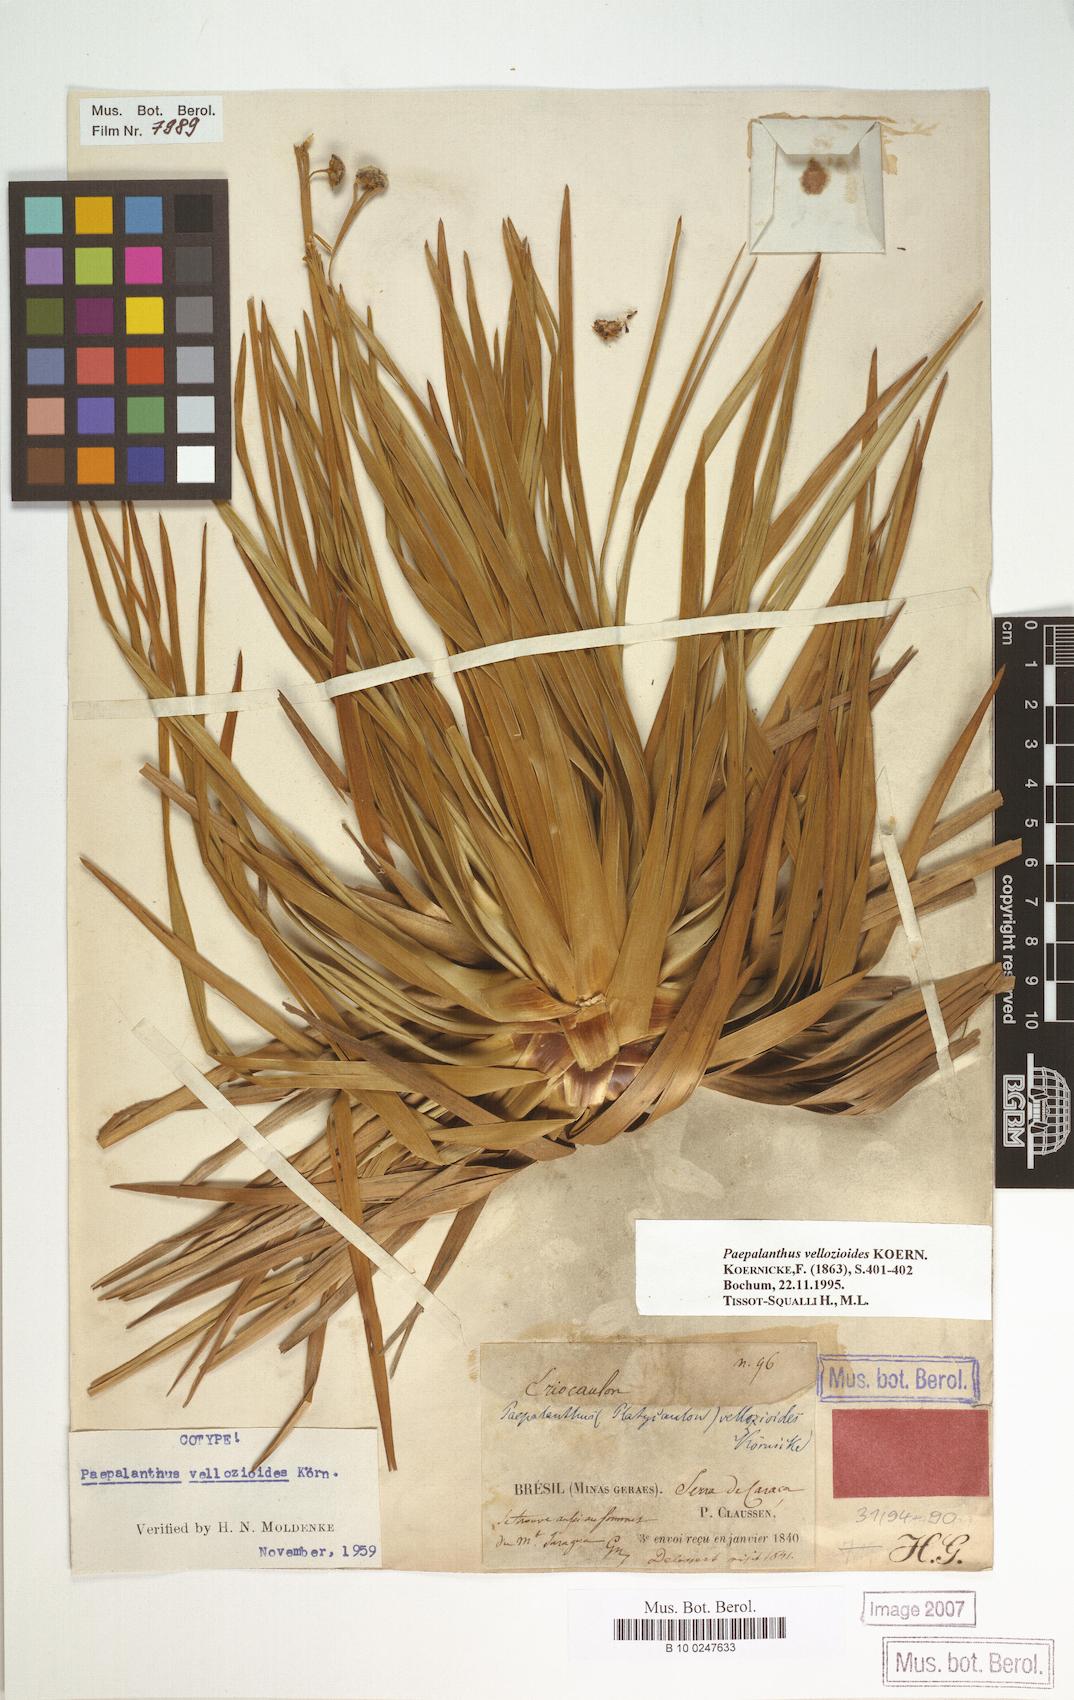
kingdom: Plantae
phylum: Tracheophyta
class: Liliopsida
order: Poales
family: Eriocaulaceae
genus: Paepalanthus
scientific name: Paepalanthus vellozioides
